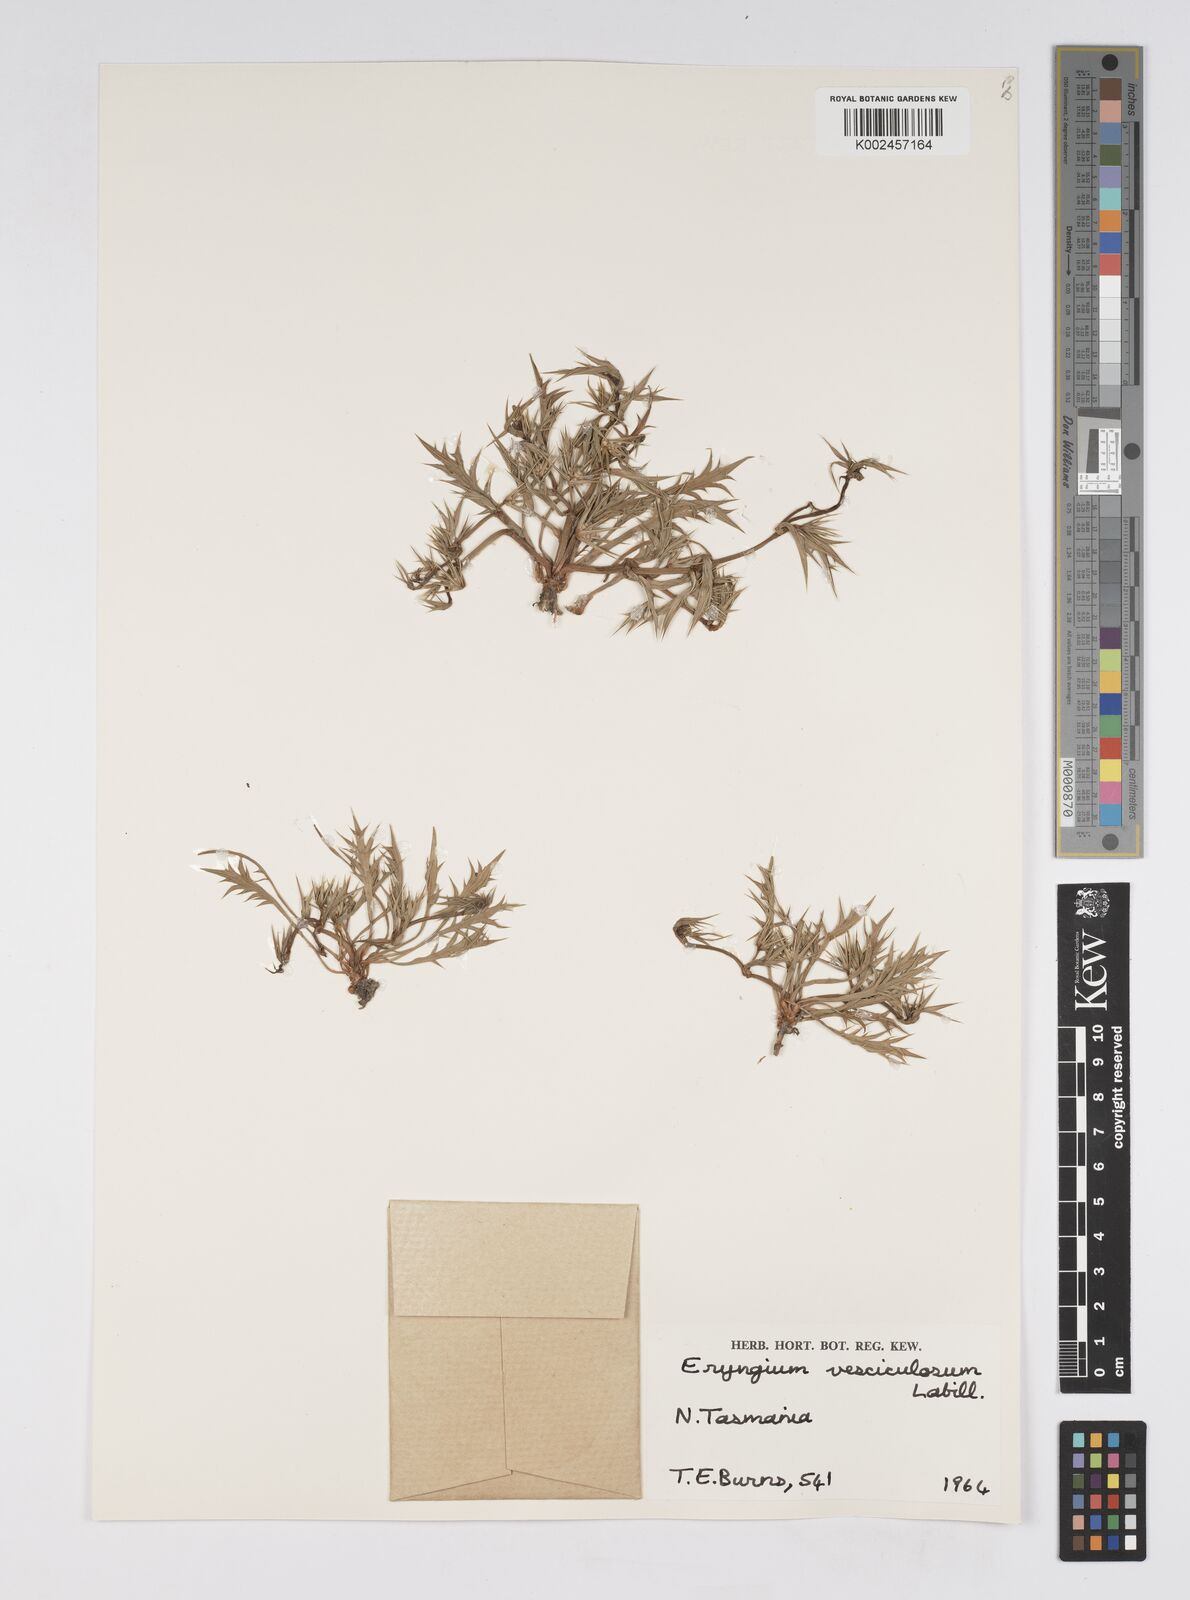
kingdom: Plantae
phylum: Tracheophyta
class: Magnoliopsida
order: Apiales
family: Apiaceae
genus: Eryngium
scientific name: Eryngium vesiculosum
